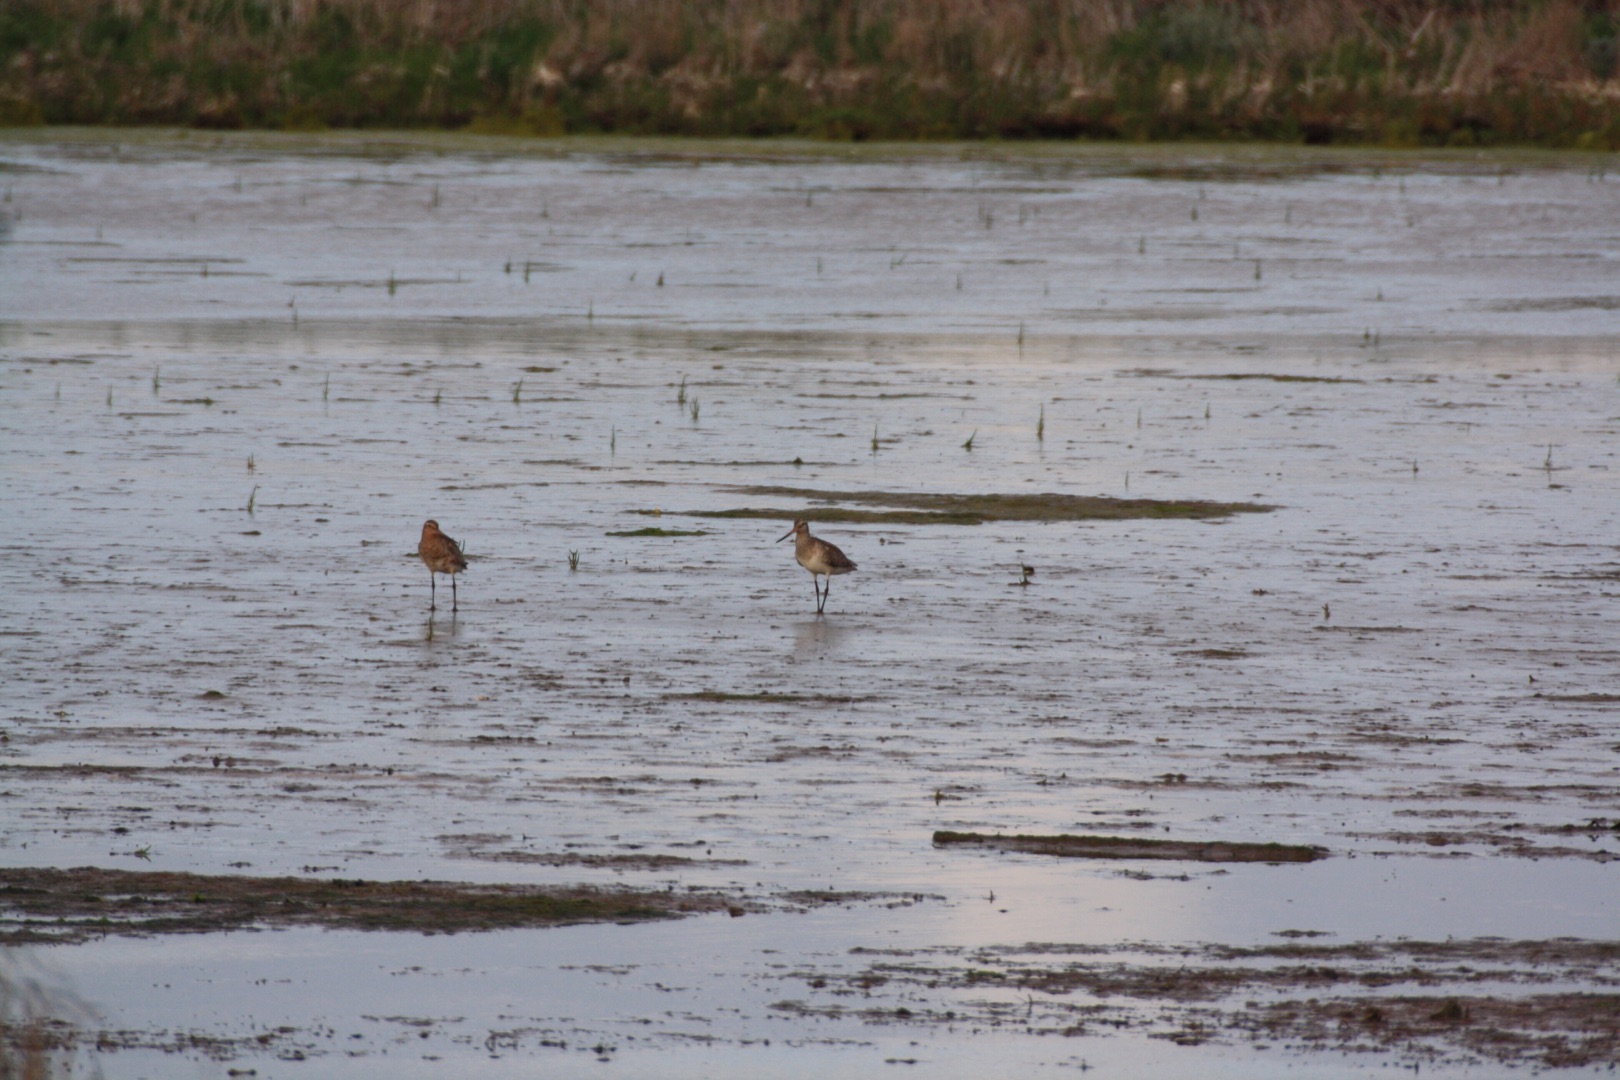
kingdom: Animalia
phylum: Chordata
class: Aves
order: Charadriiformes
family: Scolopacidae
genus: Limosa
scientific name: Limosa lapponica
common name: Lille kobbersneppe
